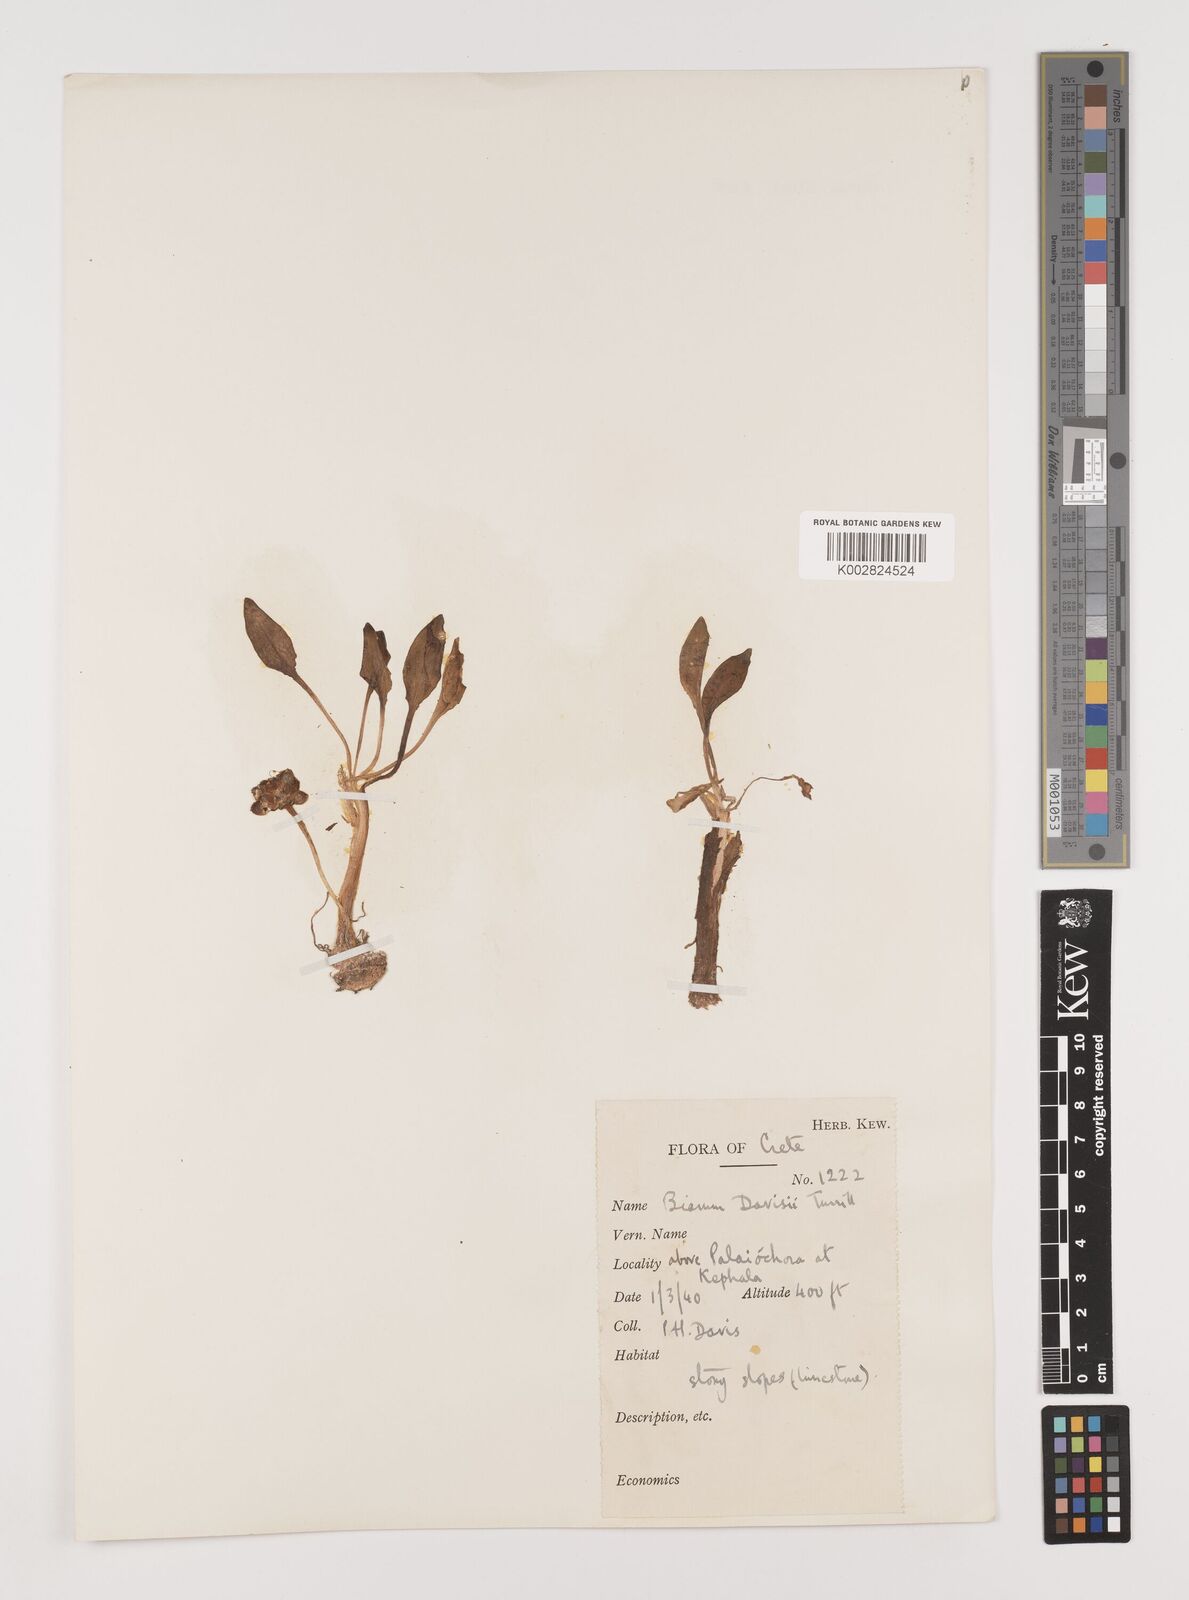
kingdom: Plantae
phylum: Tracheophyta
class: Liliopsida
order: Alismatales
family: Araceae
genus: Biarum
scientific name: Biarum davisii
